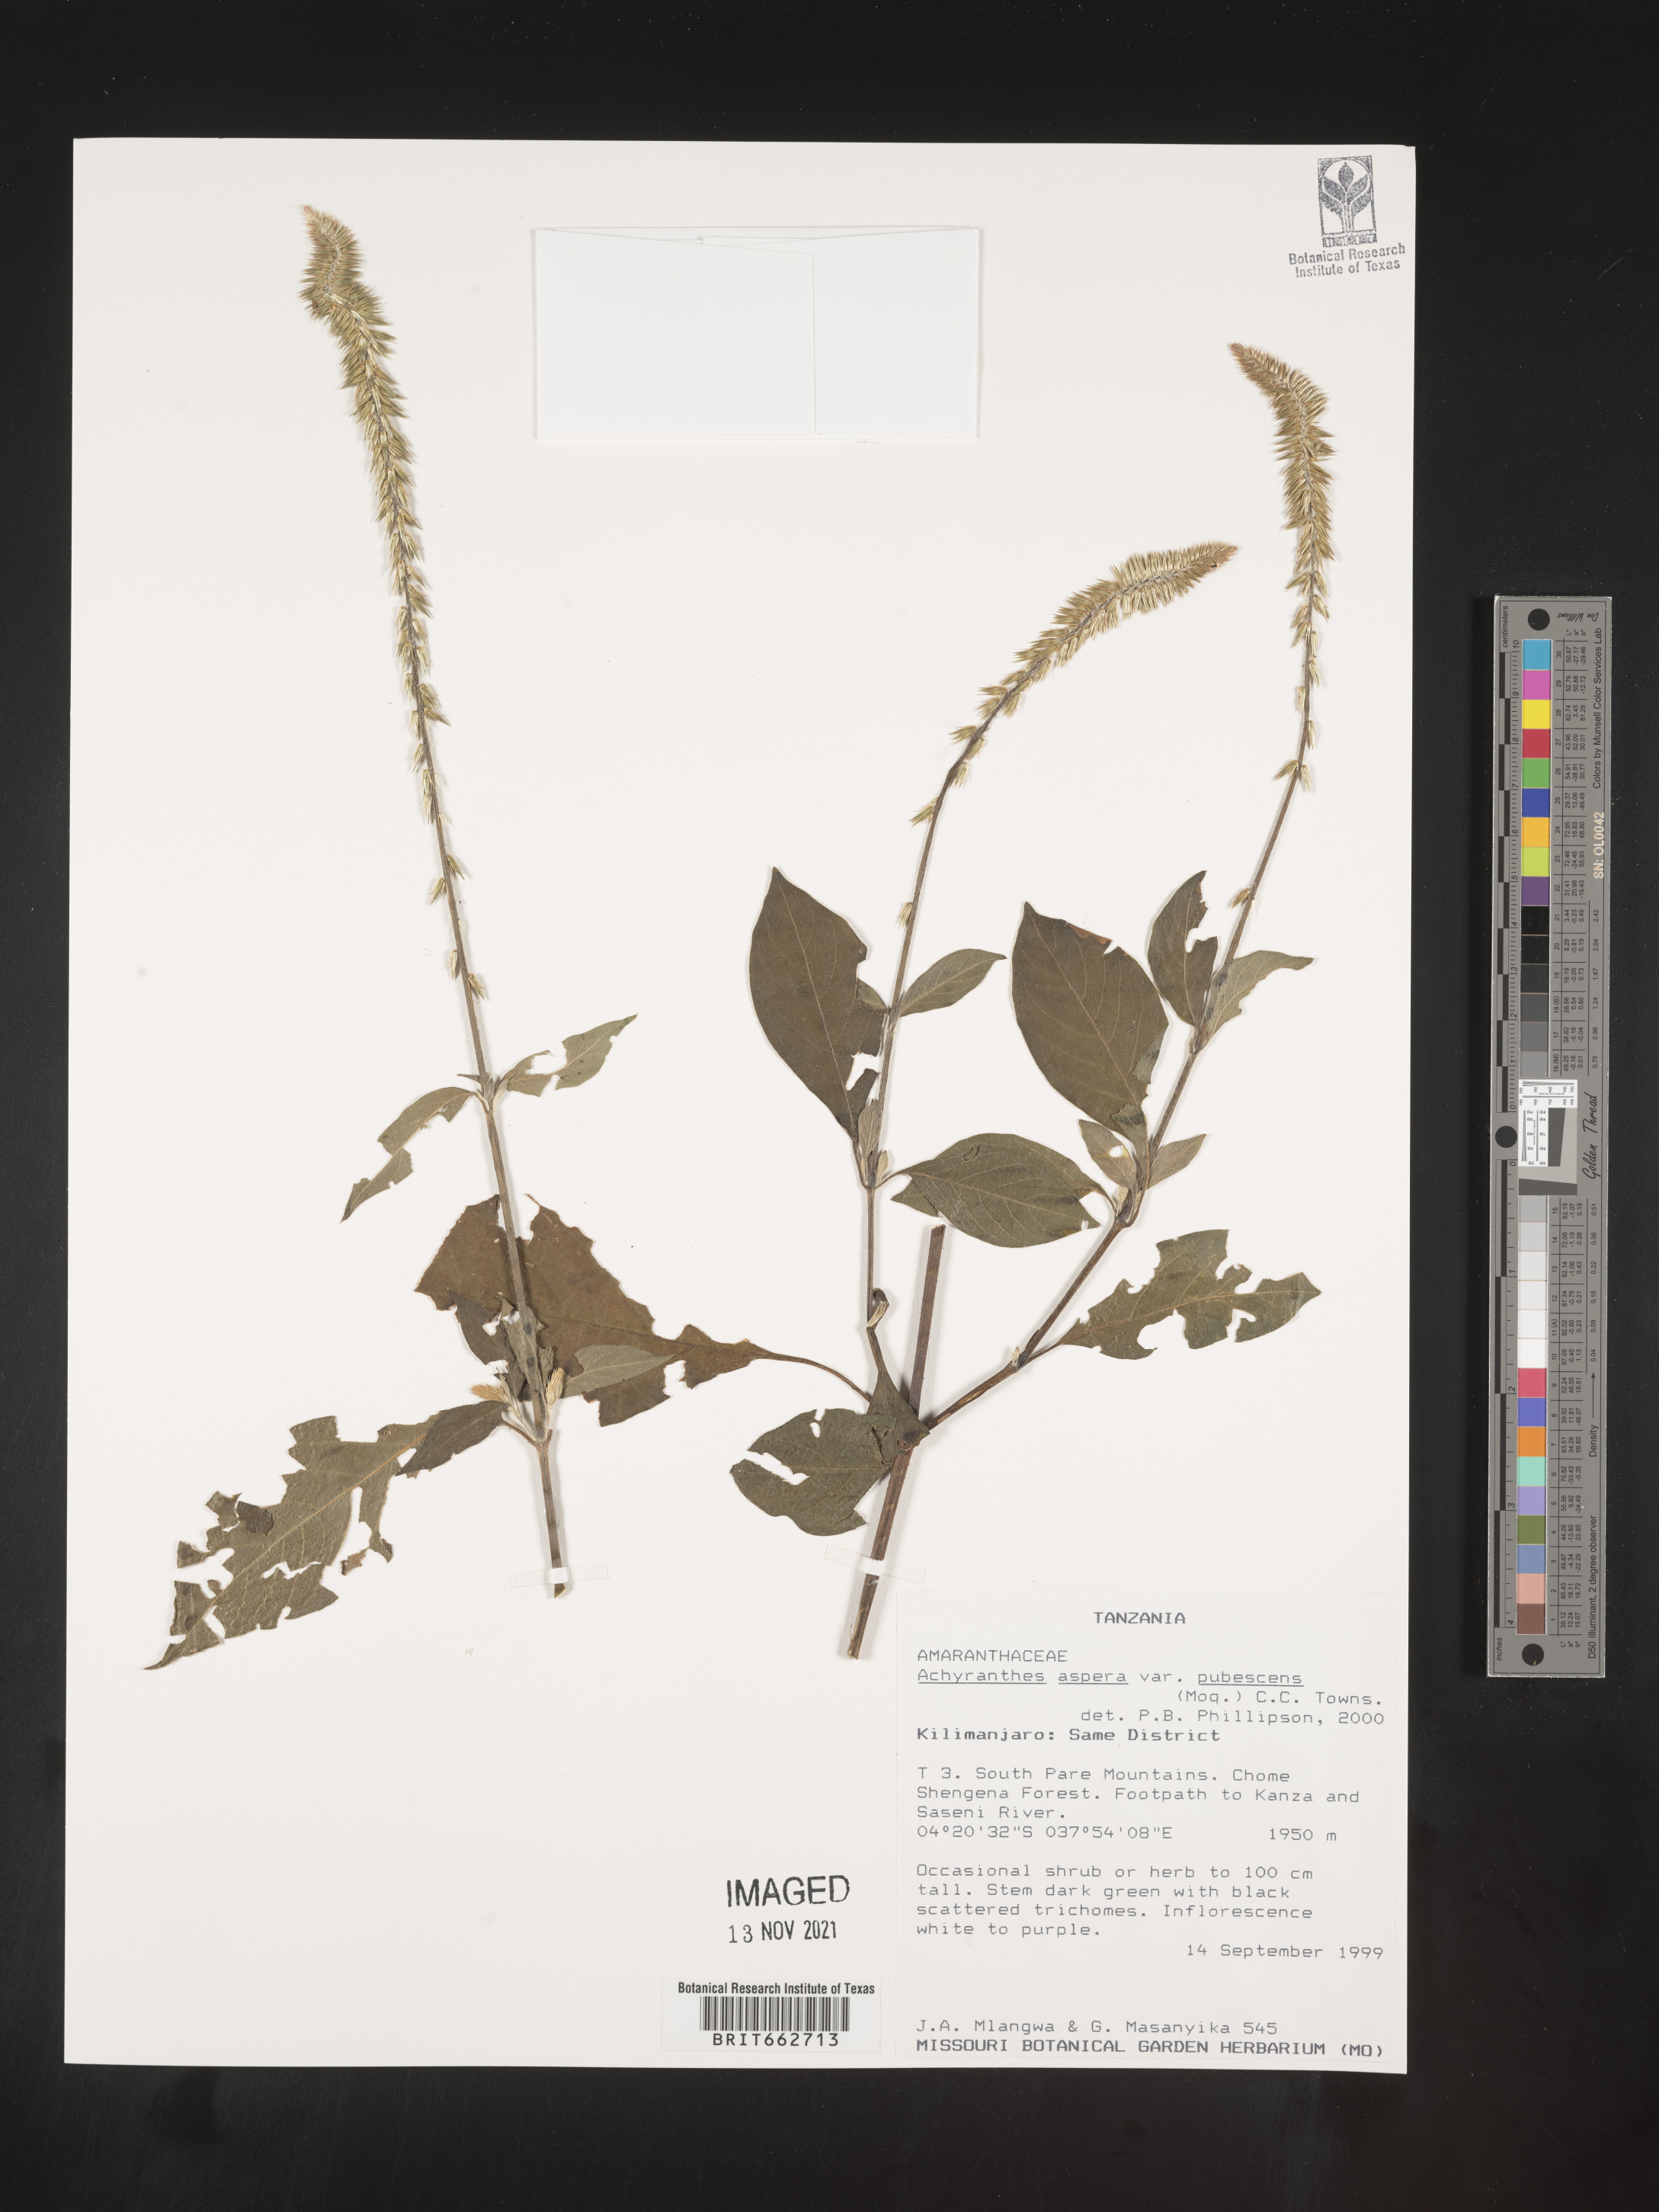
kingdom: Plantae
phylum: Tracheophyta
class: Magnoliopsida
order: Caryophyllales
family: Amaranthaceae
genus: Achyranthes
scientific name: Achyranthes
